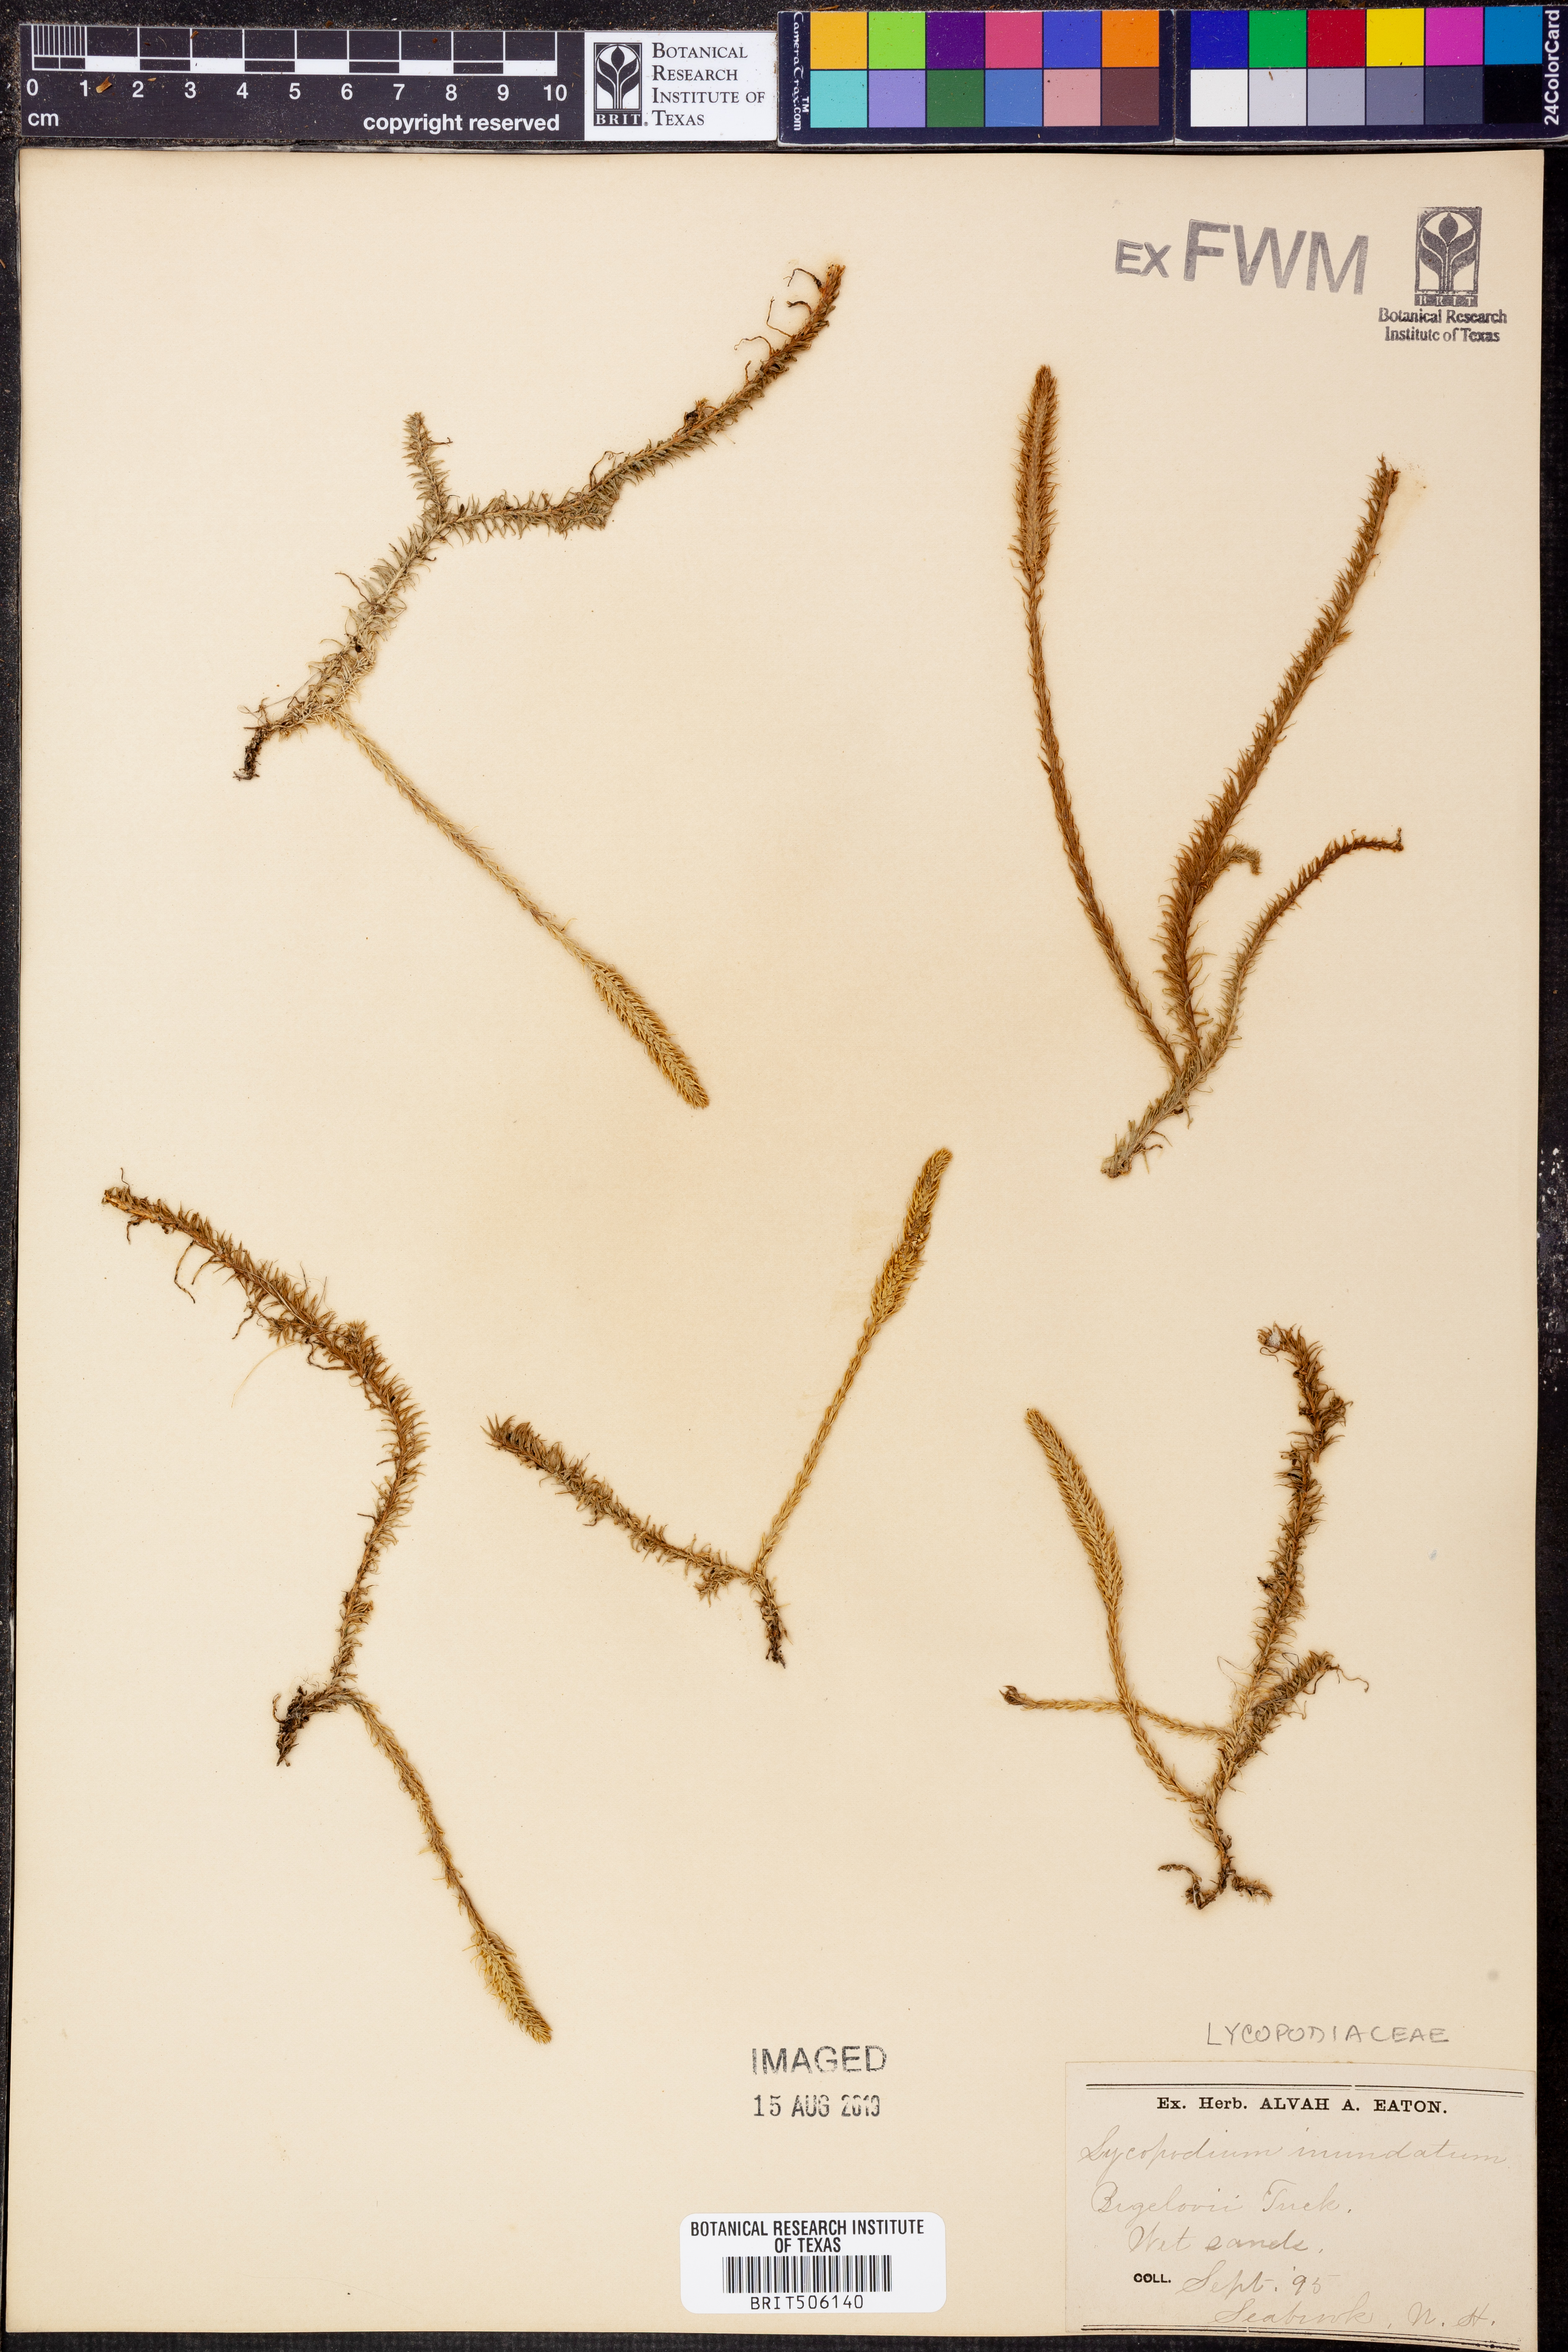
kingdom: Plantae
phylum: Tracheophyta
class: Lycopodiopsida
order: Lycopodiales
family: Lycopodiaceae
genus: Lycopodiella
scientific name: Lycopodiella appressa
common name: Appressed bog clubmoss
